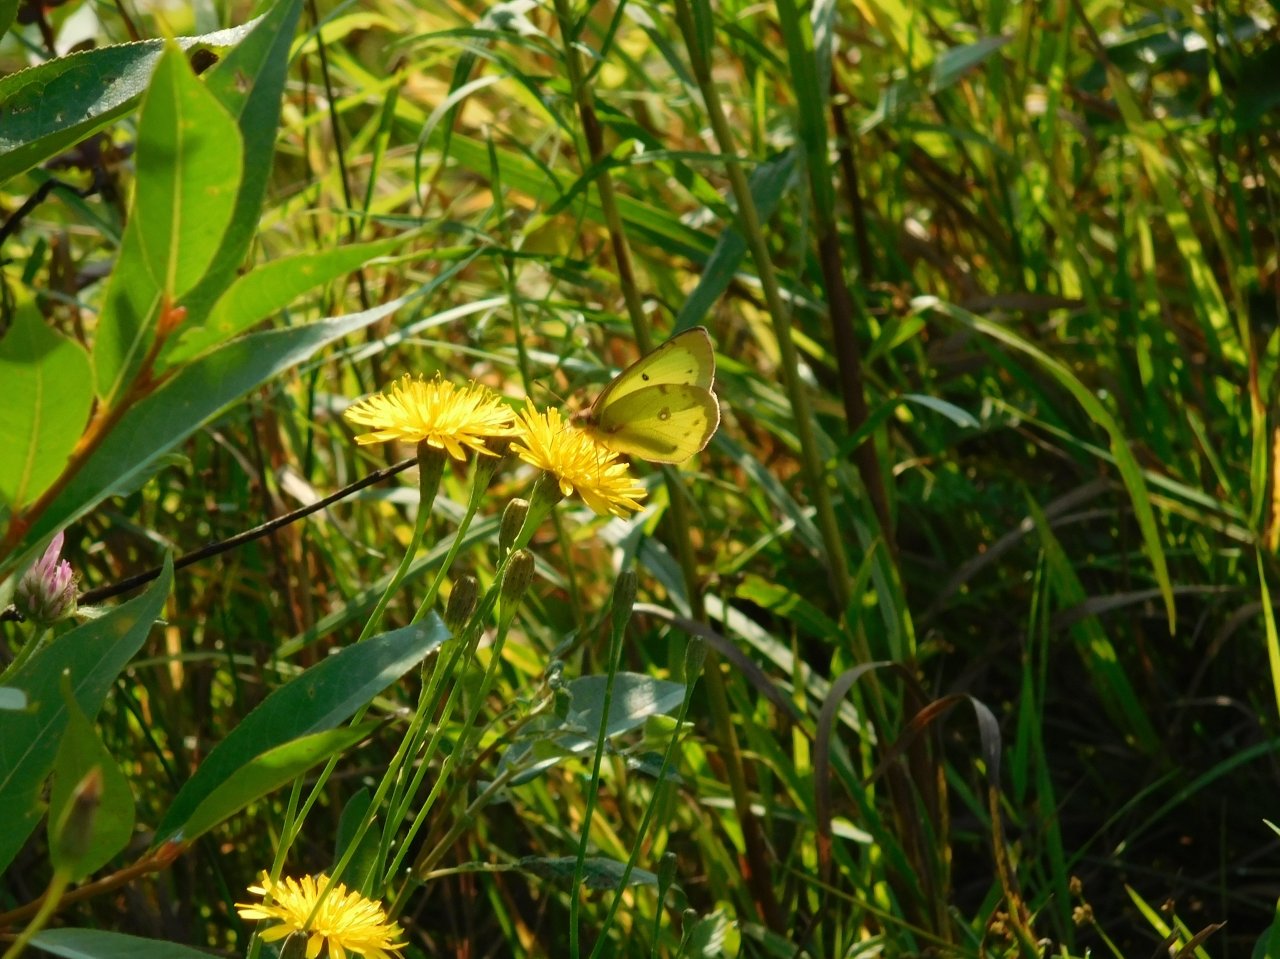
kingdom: Animalia
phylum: Arthropoda
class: Insecta
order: Lepidoptera
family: Pieridae
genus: Colias
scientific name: Colias philodice
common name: Clouded Sulphur
